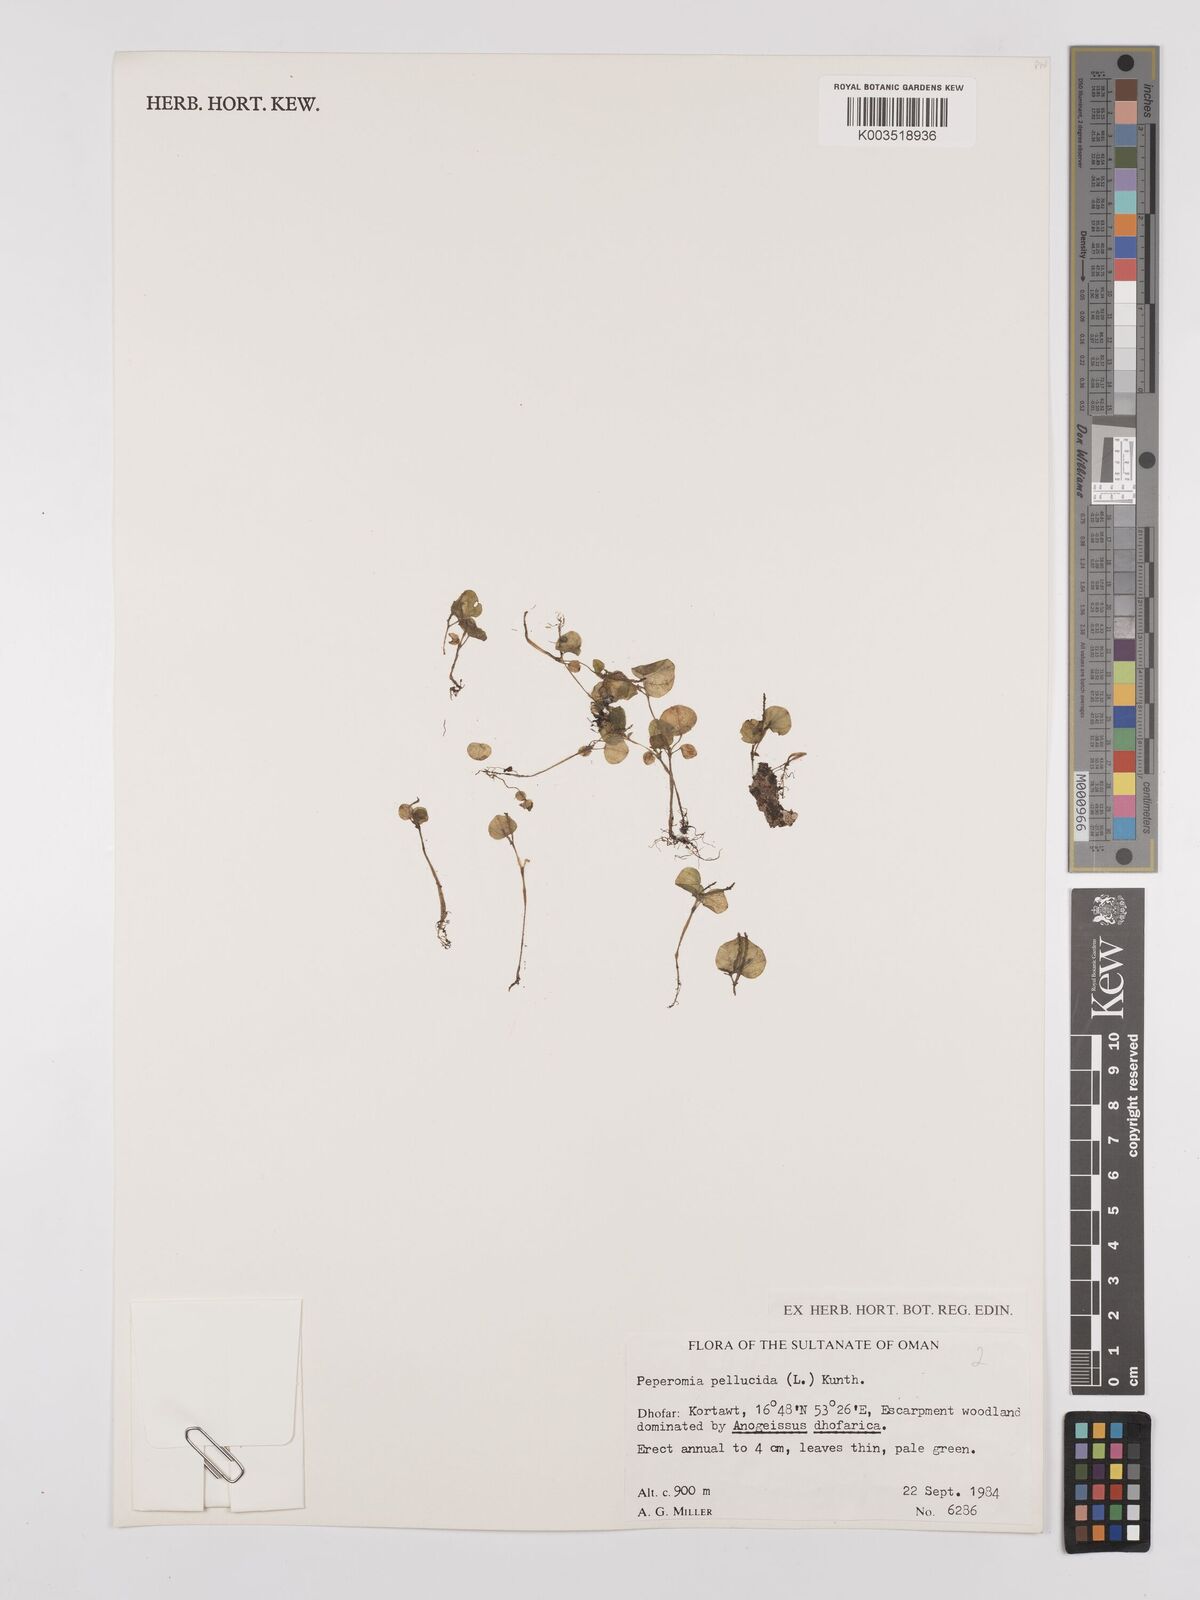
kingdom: Plantae
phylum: Tracheophyta
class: Magnoliopsida
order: Piperales
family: Piperaceae
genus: Peperomia
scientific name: Peperomia pellucida
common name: Man to man
